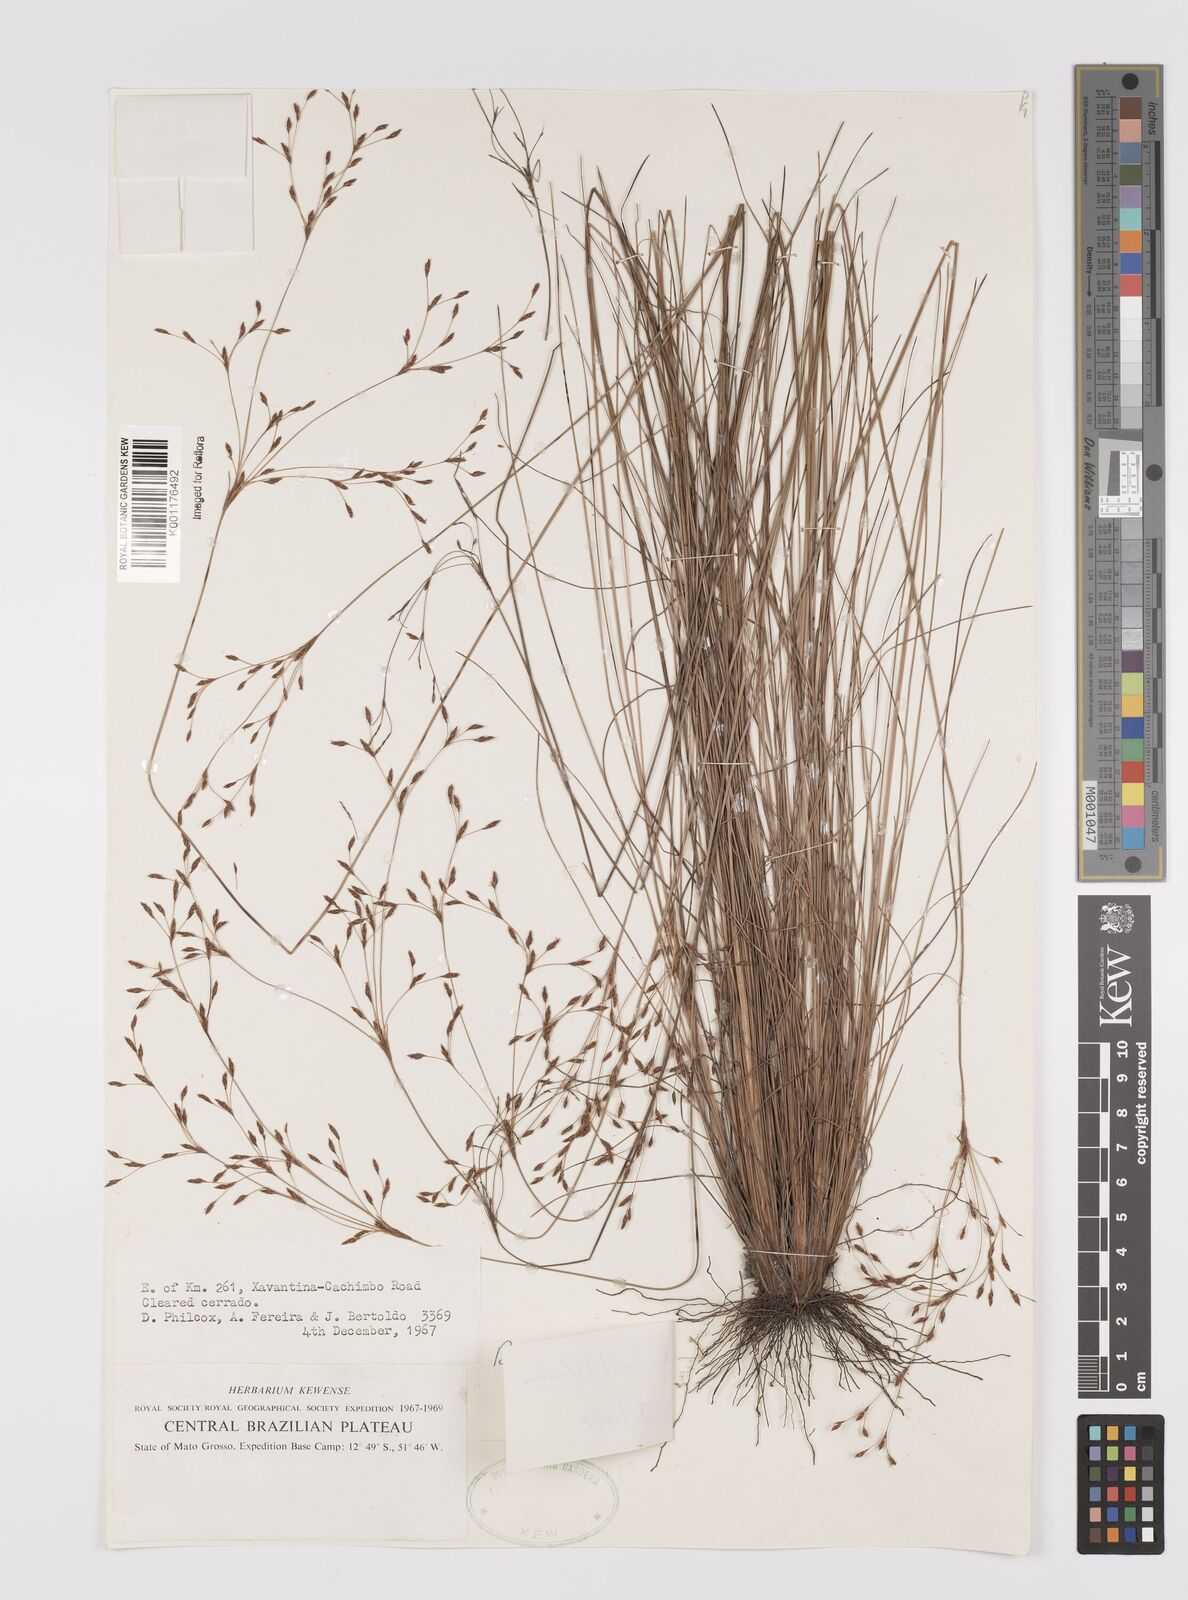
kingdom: Plantae
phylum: Tracheophyta
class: Liliopsida
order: Poales
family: Cyperaceae
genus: Bulbostylis
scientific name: Bulbostylis capillaris
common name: Densetuft hairsedge
